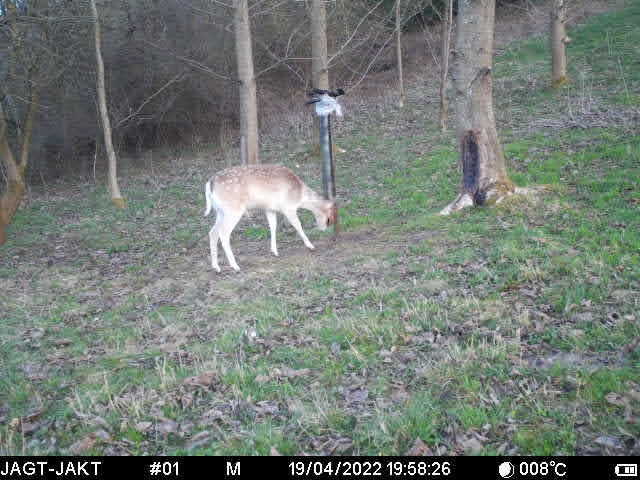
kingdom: Animalia
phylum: Chordata
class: Mammalia
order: Artiodactyla
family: Cervidae
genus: Dama
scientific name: Dama dama
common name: Dådyr
